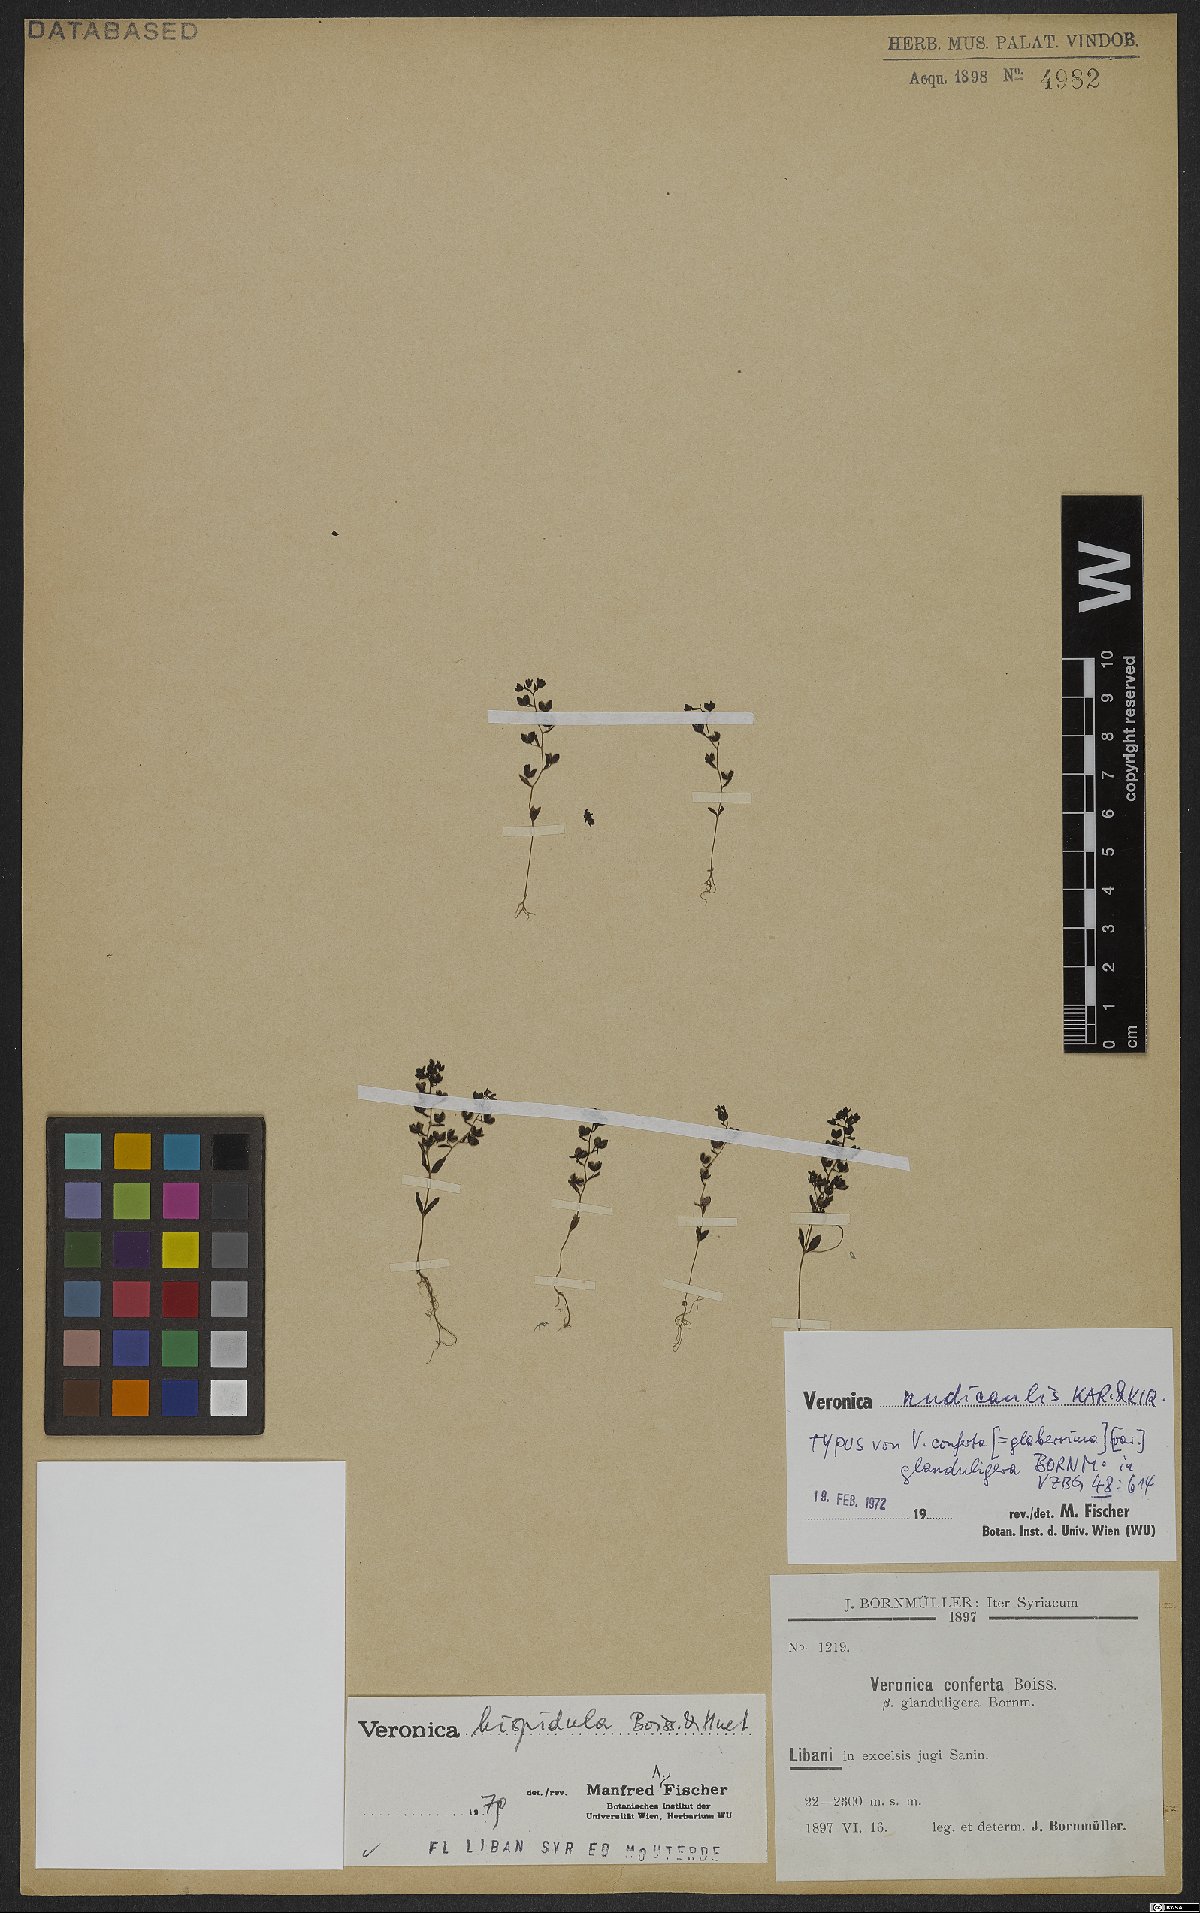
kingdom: Plantae
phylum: Tracheophyta
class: Magnoliopsida
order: Lamiales
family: Plantaginaceae
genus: Veronica
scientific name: Veronica hispidula
